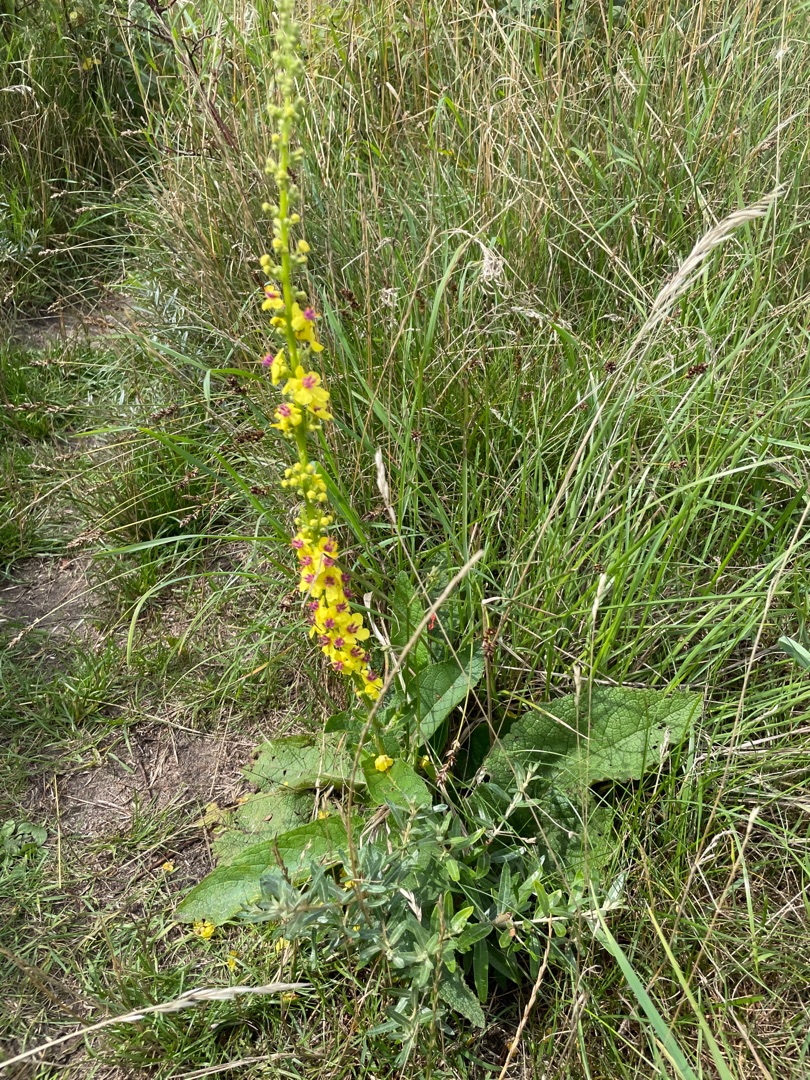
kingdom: Plantae
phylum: Tracheophyta
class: Magnoliopsida
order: Lamiales
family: Scrophulariaceae
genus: Verbascum
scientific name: Verbascum nigrum
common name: Mørk kongelys
